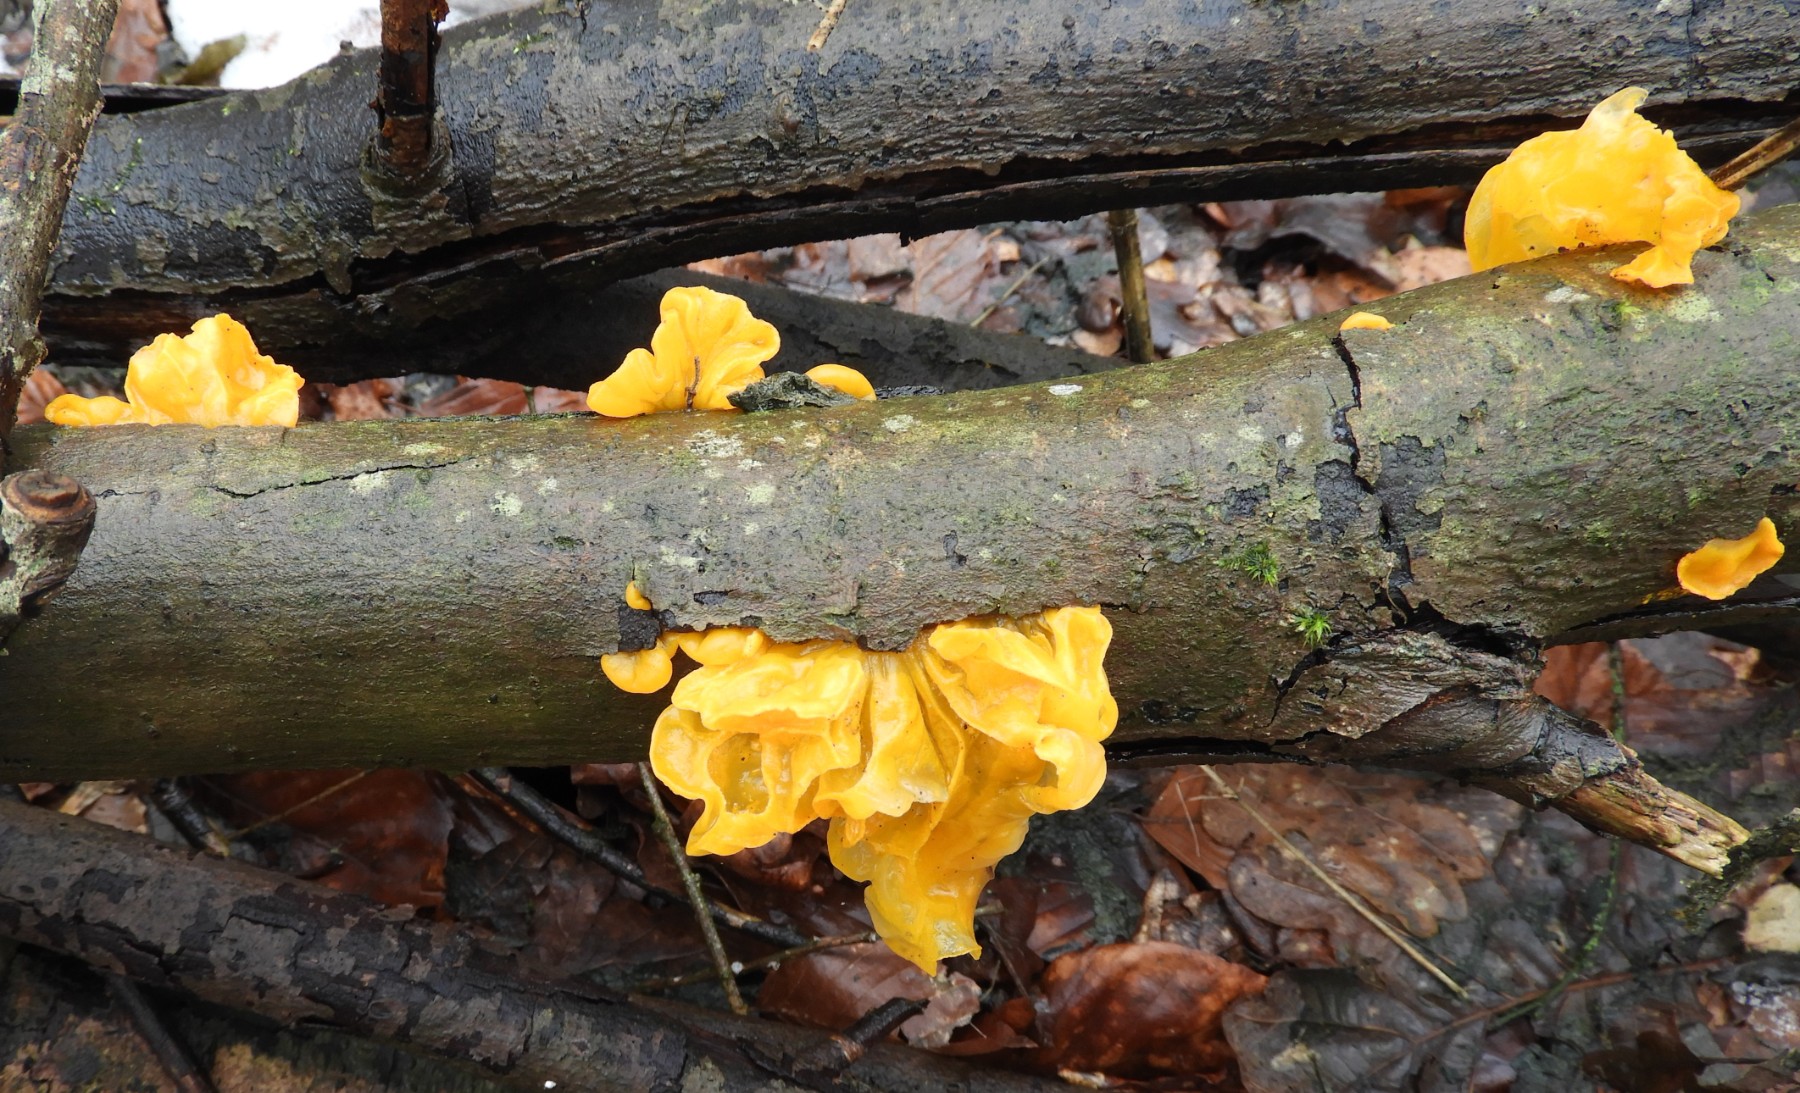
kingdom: Fungi
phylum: Basidiomycota
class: Tremellomycetes
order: Tremellales
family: Tremellaceae
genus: Tremella
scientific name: Tremella mesenterica
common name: gul bævresvamp
